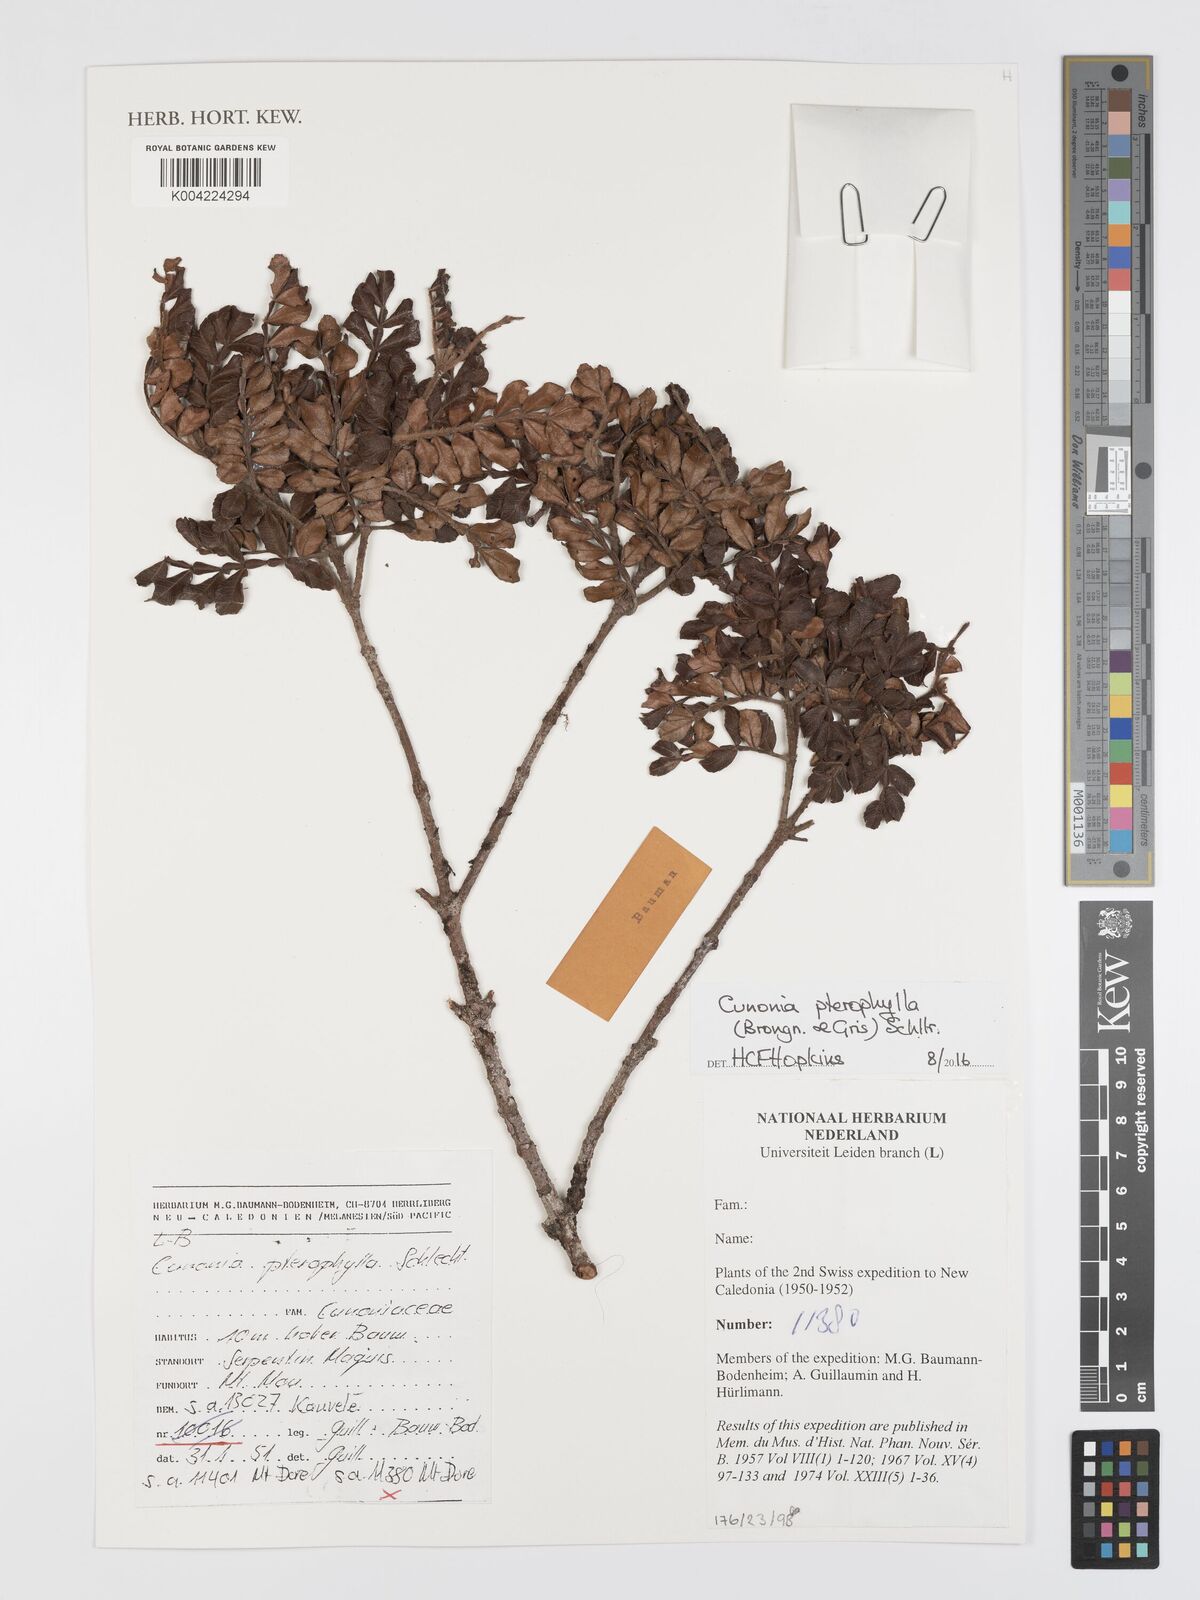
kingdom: Plantae
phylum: Tracheophyta
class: Magnoliopsida
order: Oxalidales
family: Cunoniaceae
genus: Cunonia
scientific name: Cunonia pterophylla
